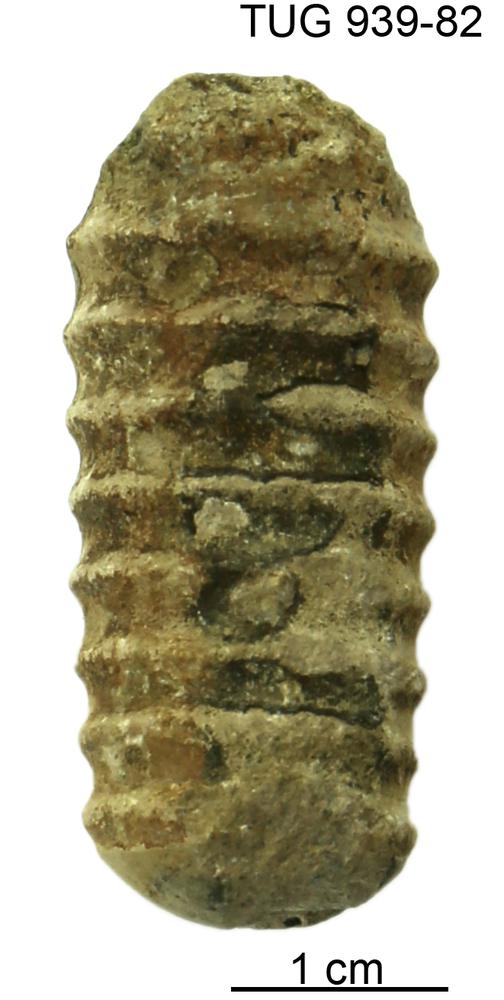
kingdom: Animalia
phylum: Mollusca
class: Cephalopoda
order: Orthocerida
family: Dawsonoceratidae
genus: Palaeodawsonocerina
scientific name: Palaeodawsonocerina Spyroceras saxbyense
